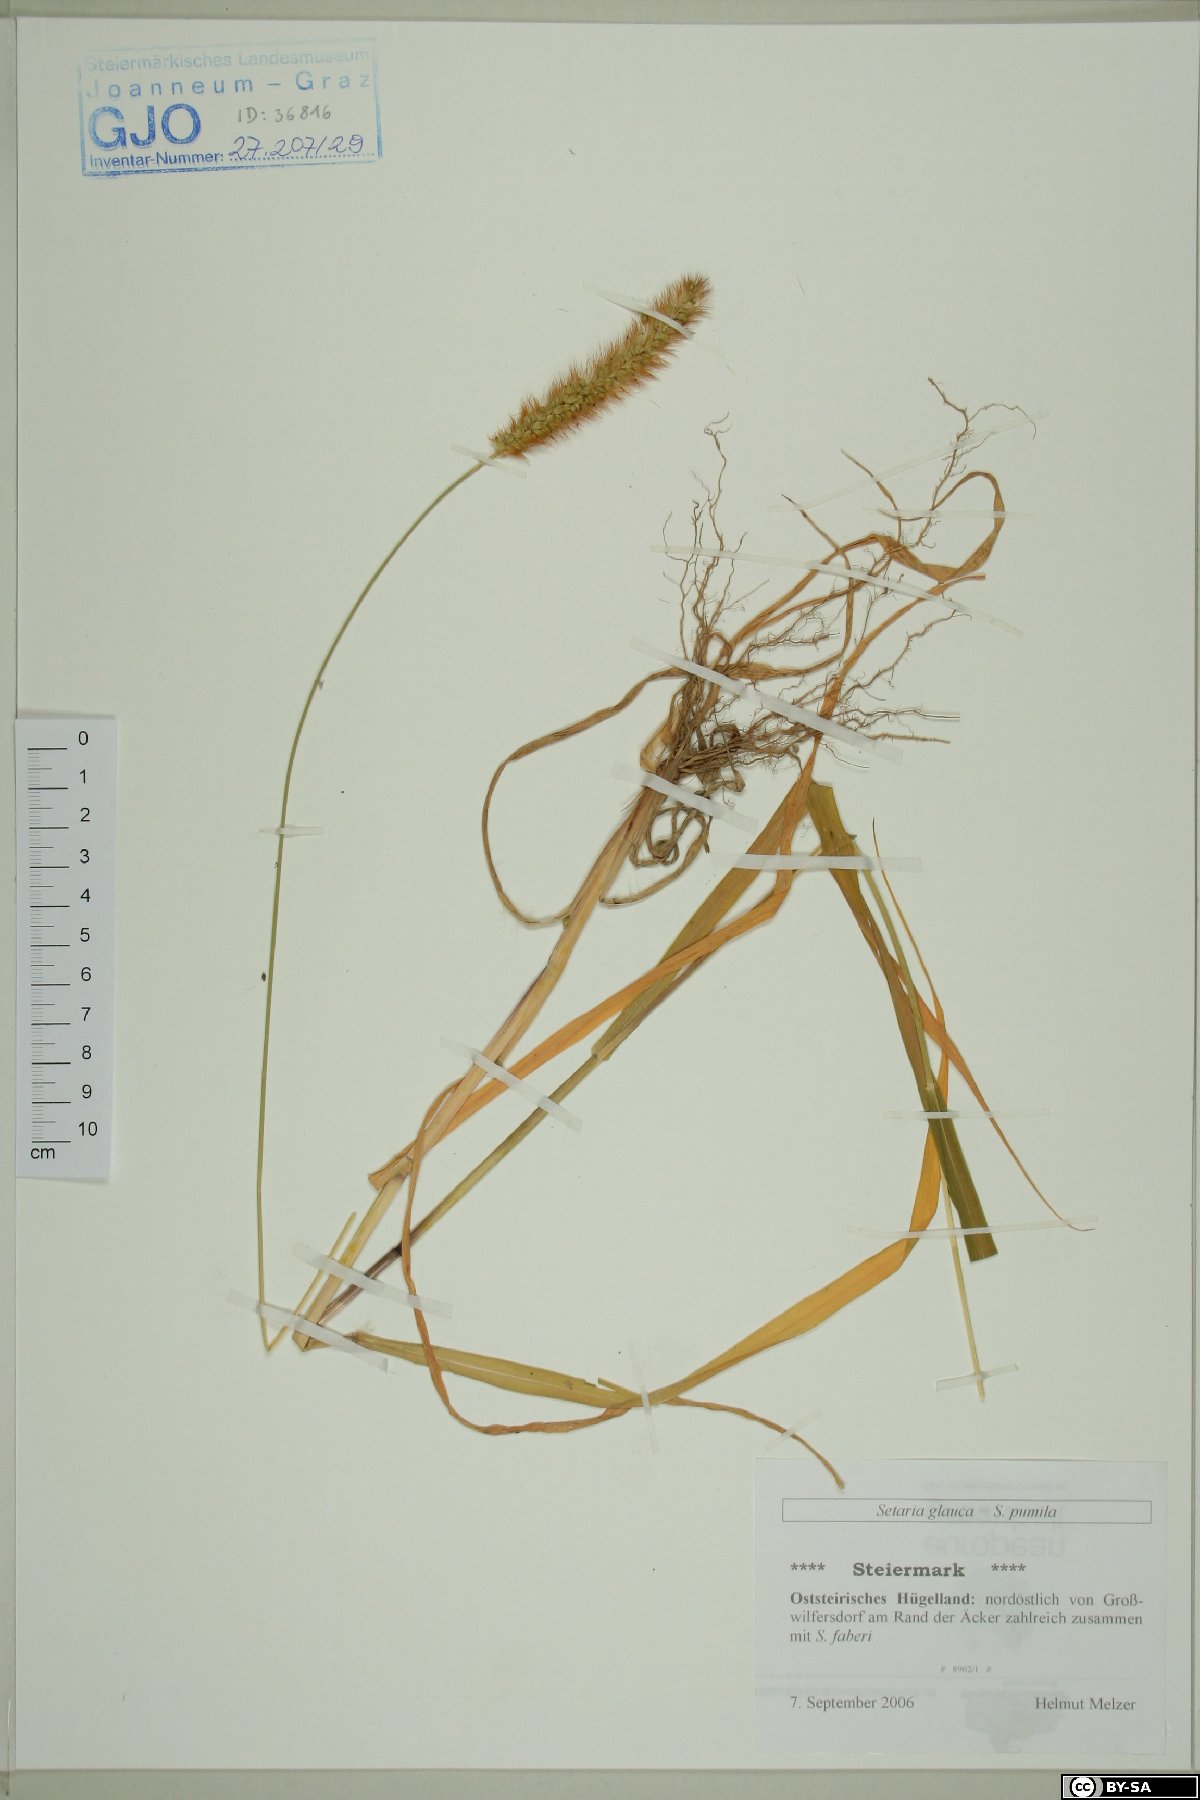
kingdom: Plantae
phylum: Tracheophyta
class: Liliopsida
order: Poales
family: Poaceae
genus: Cenchrus
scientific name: Cenchrus americanus
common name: Pearl millet
